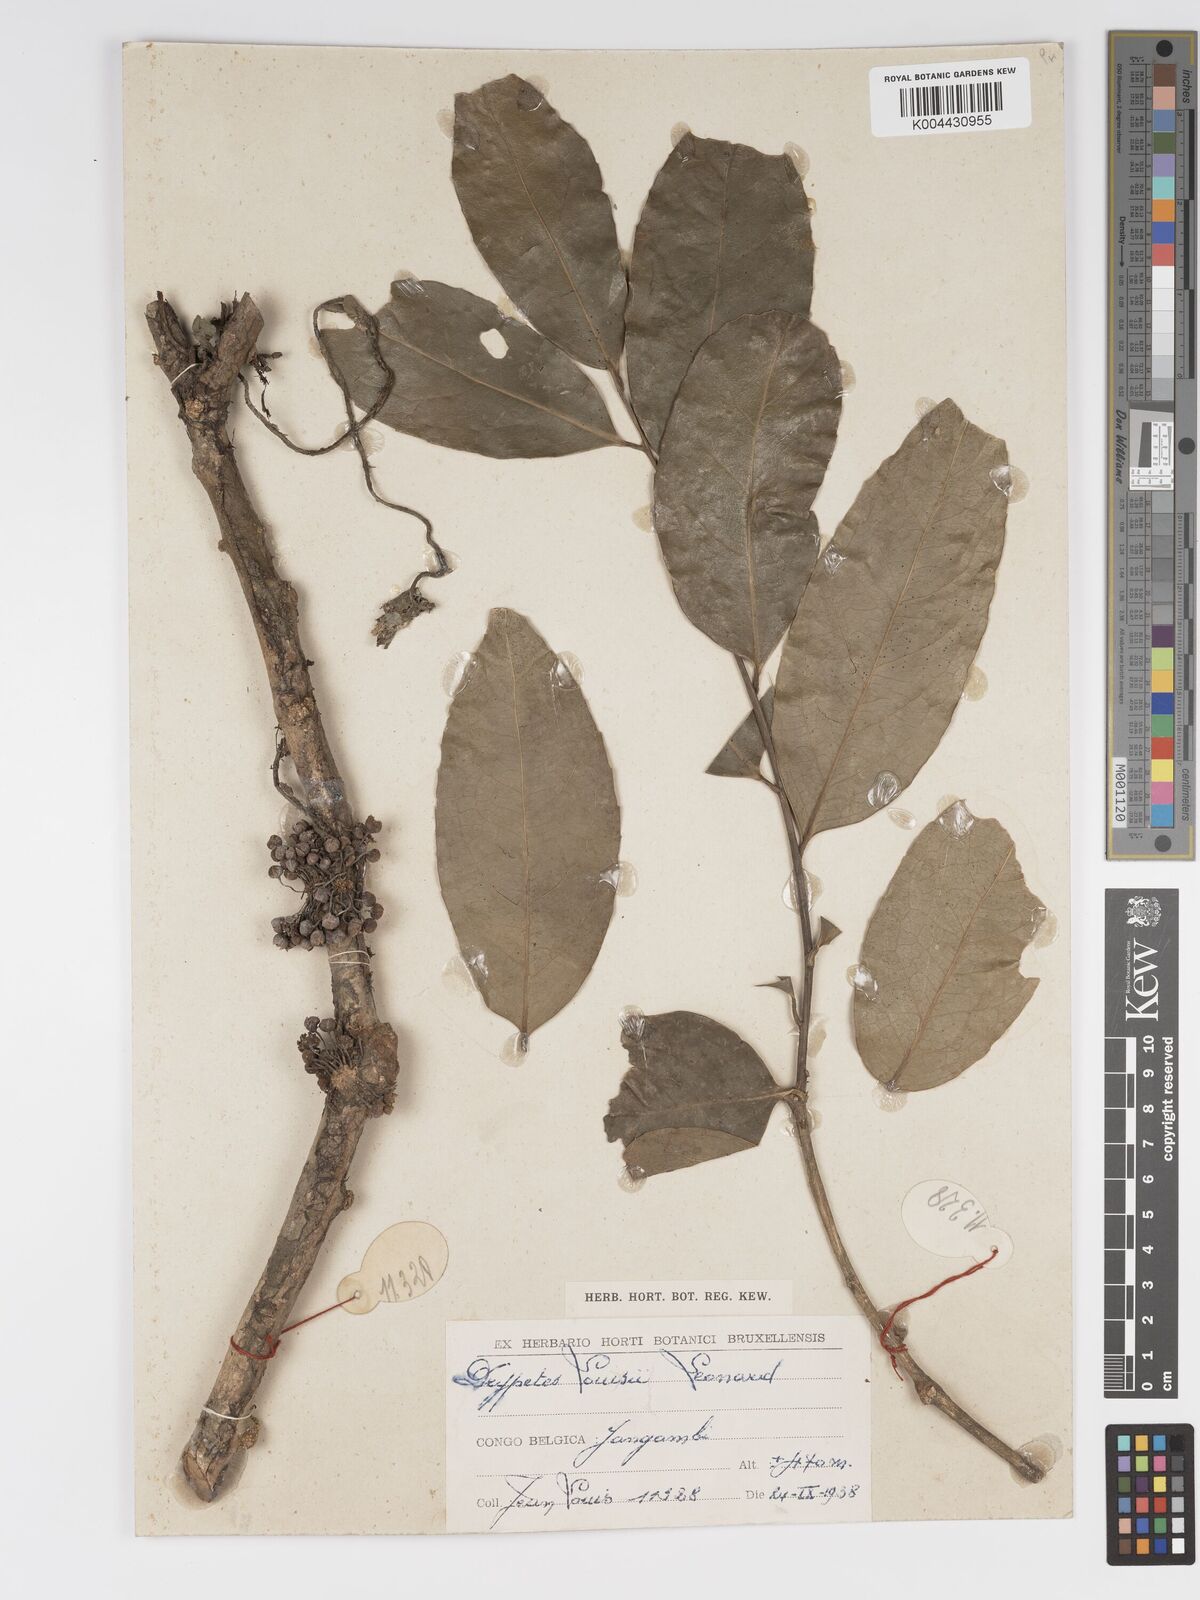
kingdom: Plantae
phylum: Tracheophyta
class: Magnoliopsida
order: Malpighiales
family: Putranjivaceae
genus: Drypetes
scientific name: Drypetes
